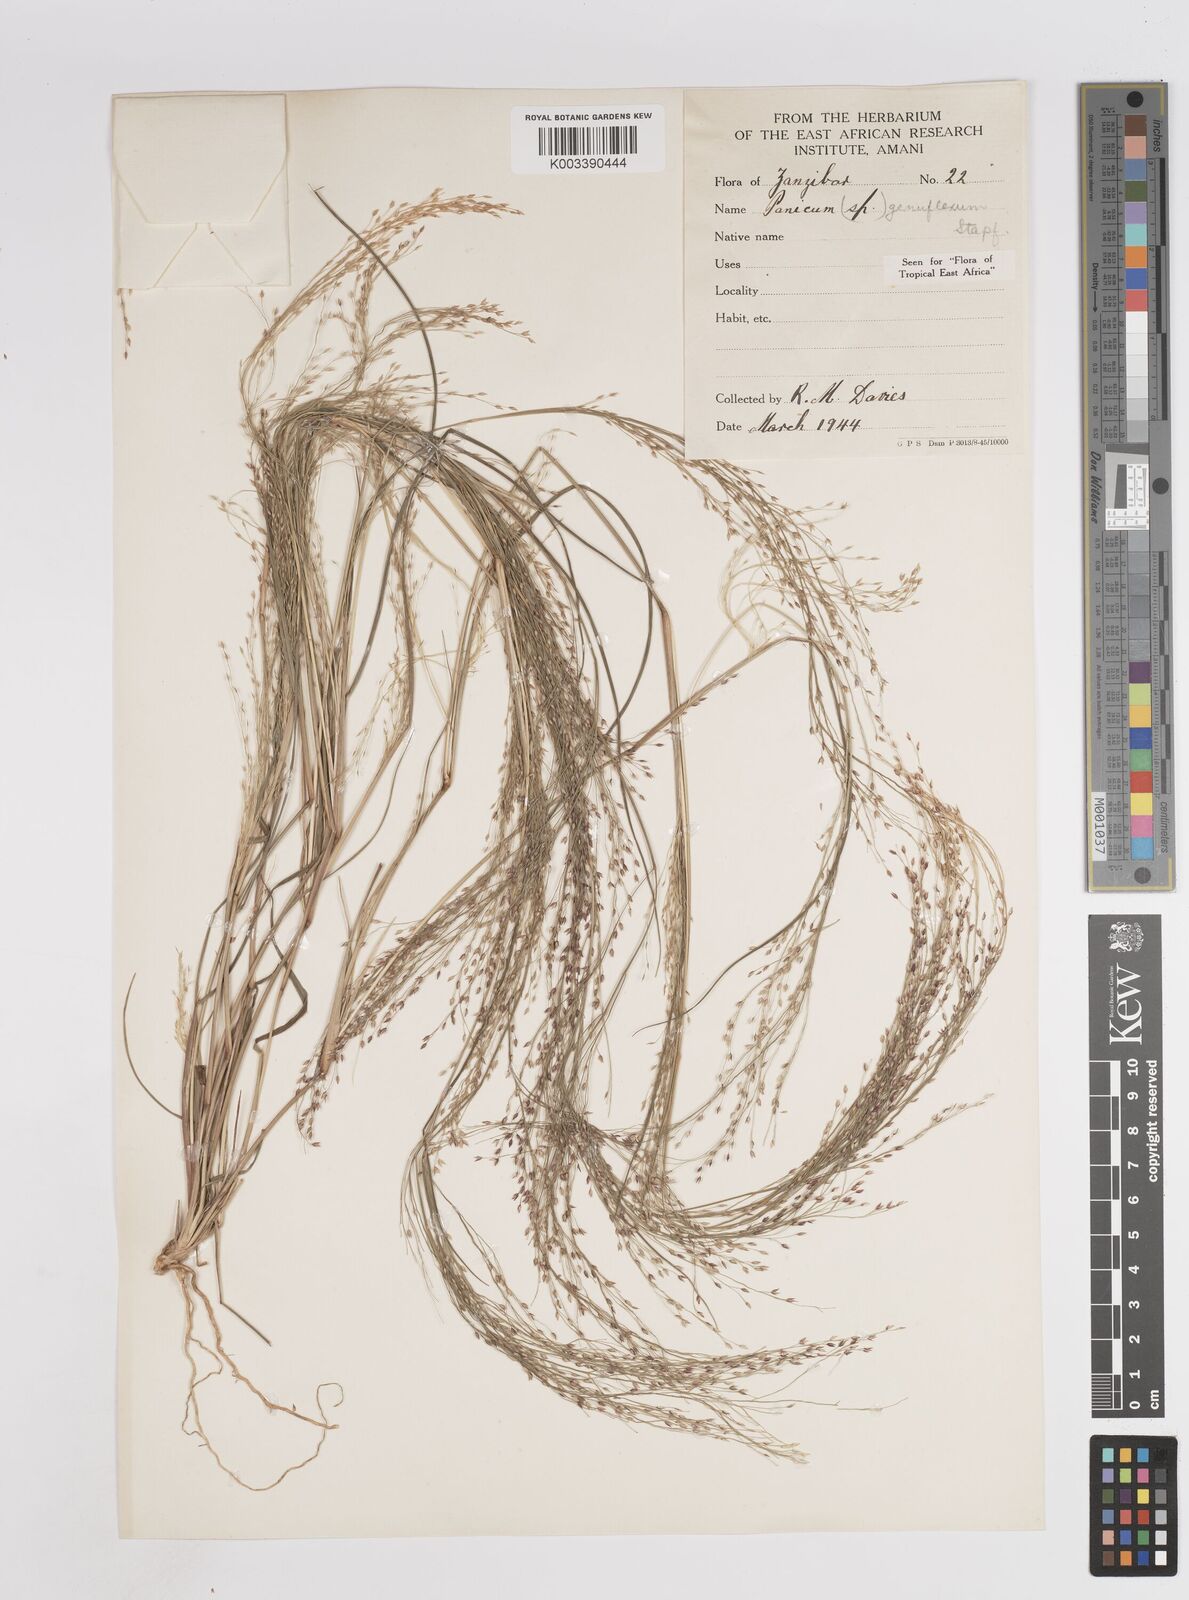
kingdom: Plantae
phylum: Tracheophyta
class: Liliopsida
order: Poales
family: Poaceae
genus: Panicum
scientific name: Panicum genuflexum
